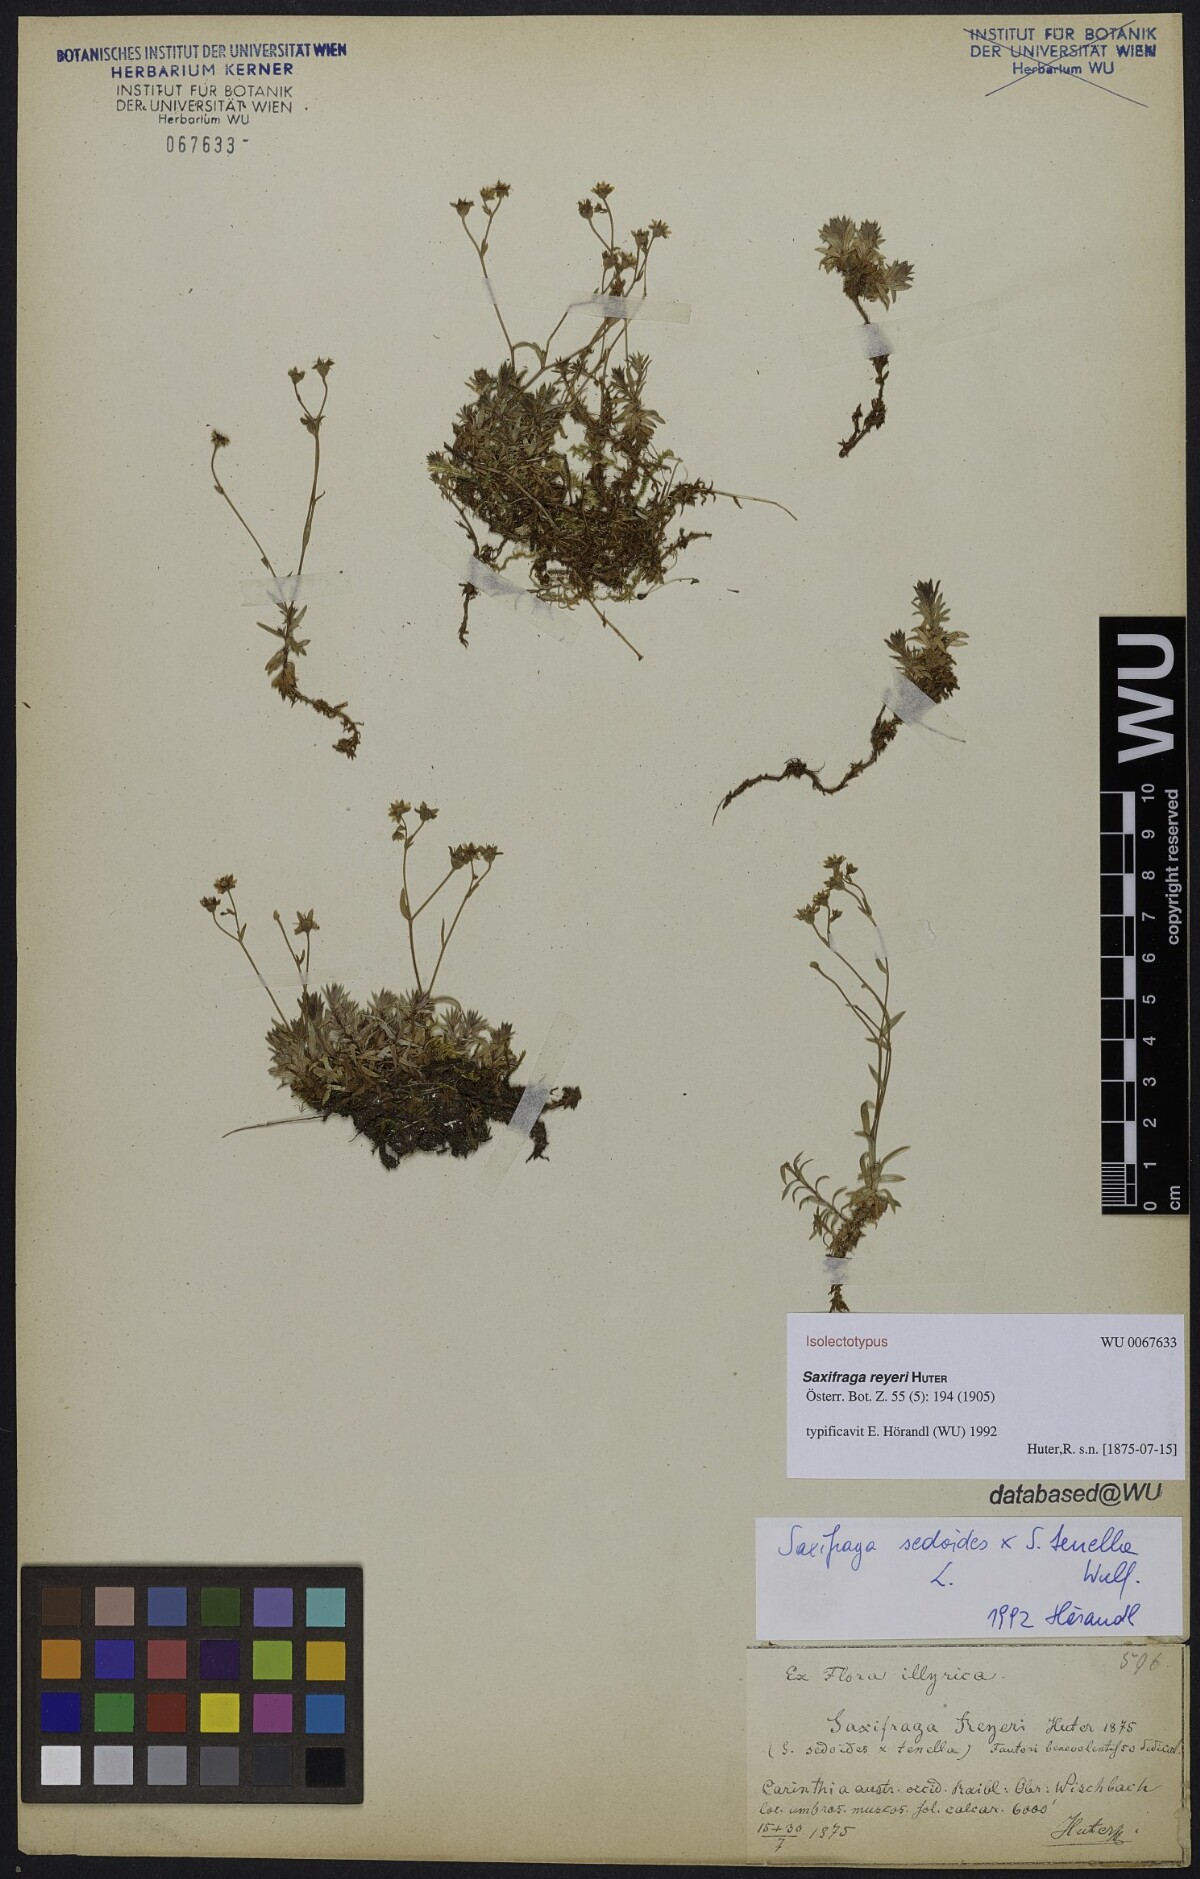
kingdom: Plantae
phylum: Tracheophyta
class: Magnoliopsida
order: Saxifragales
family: Saxifragaceae
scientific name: Saxifragaceae
